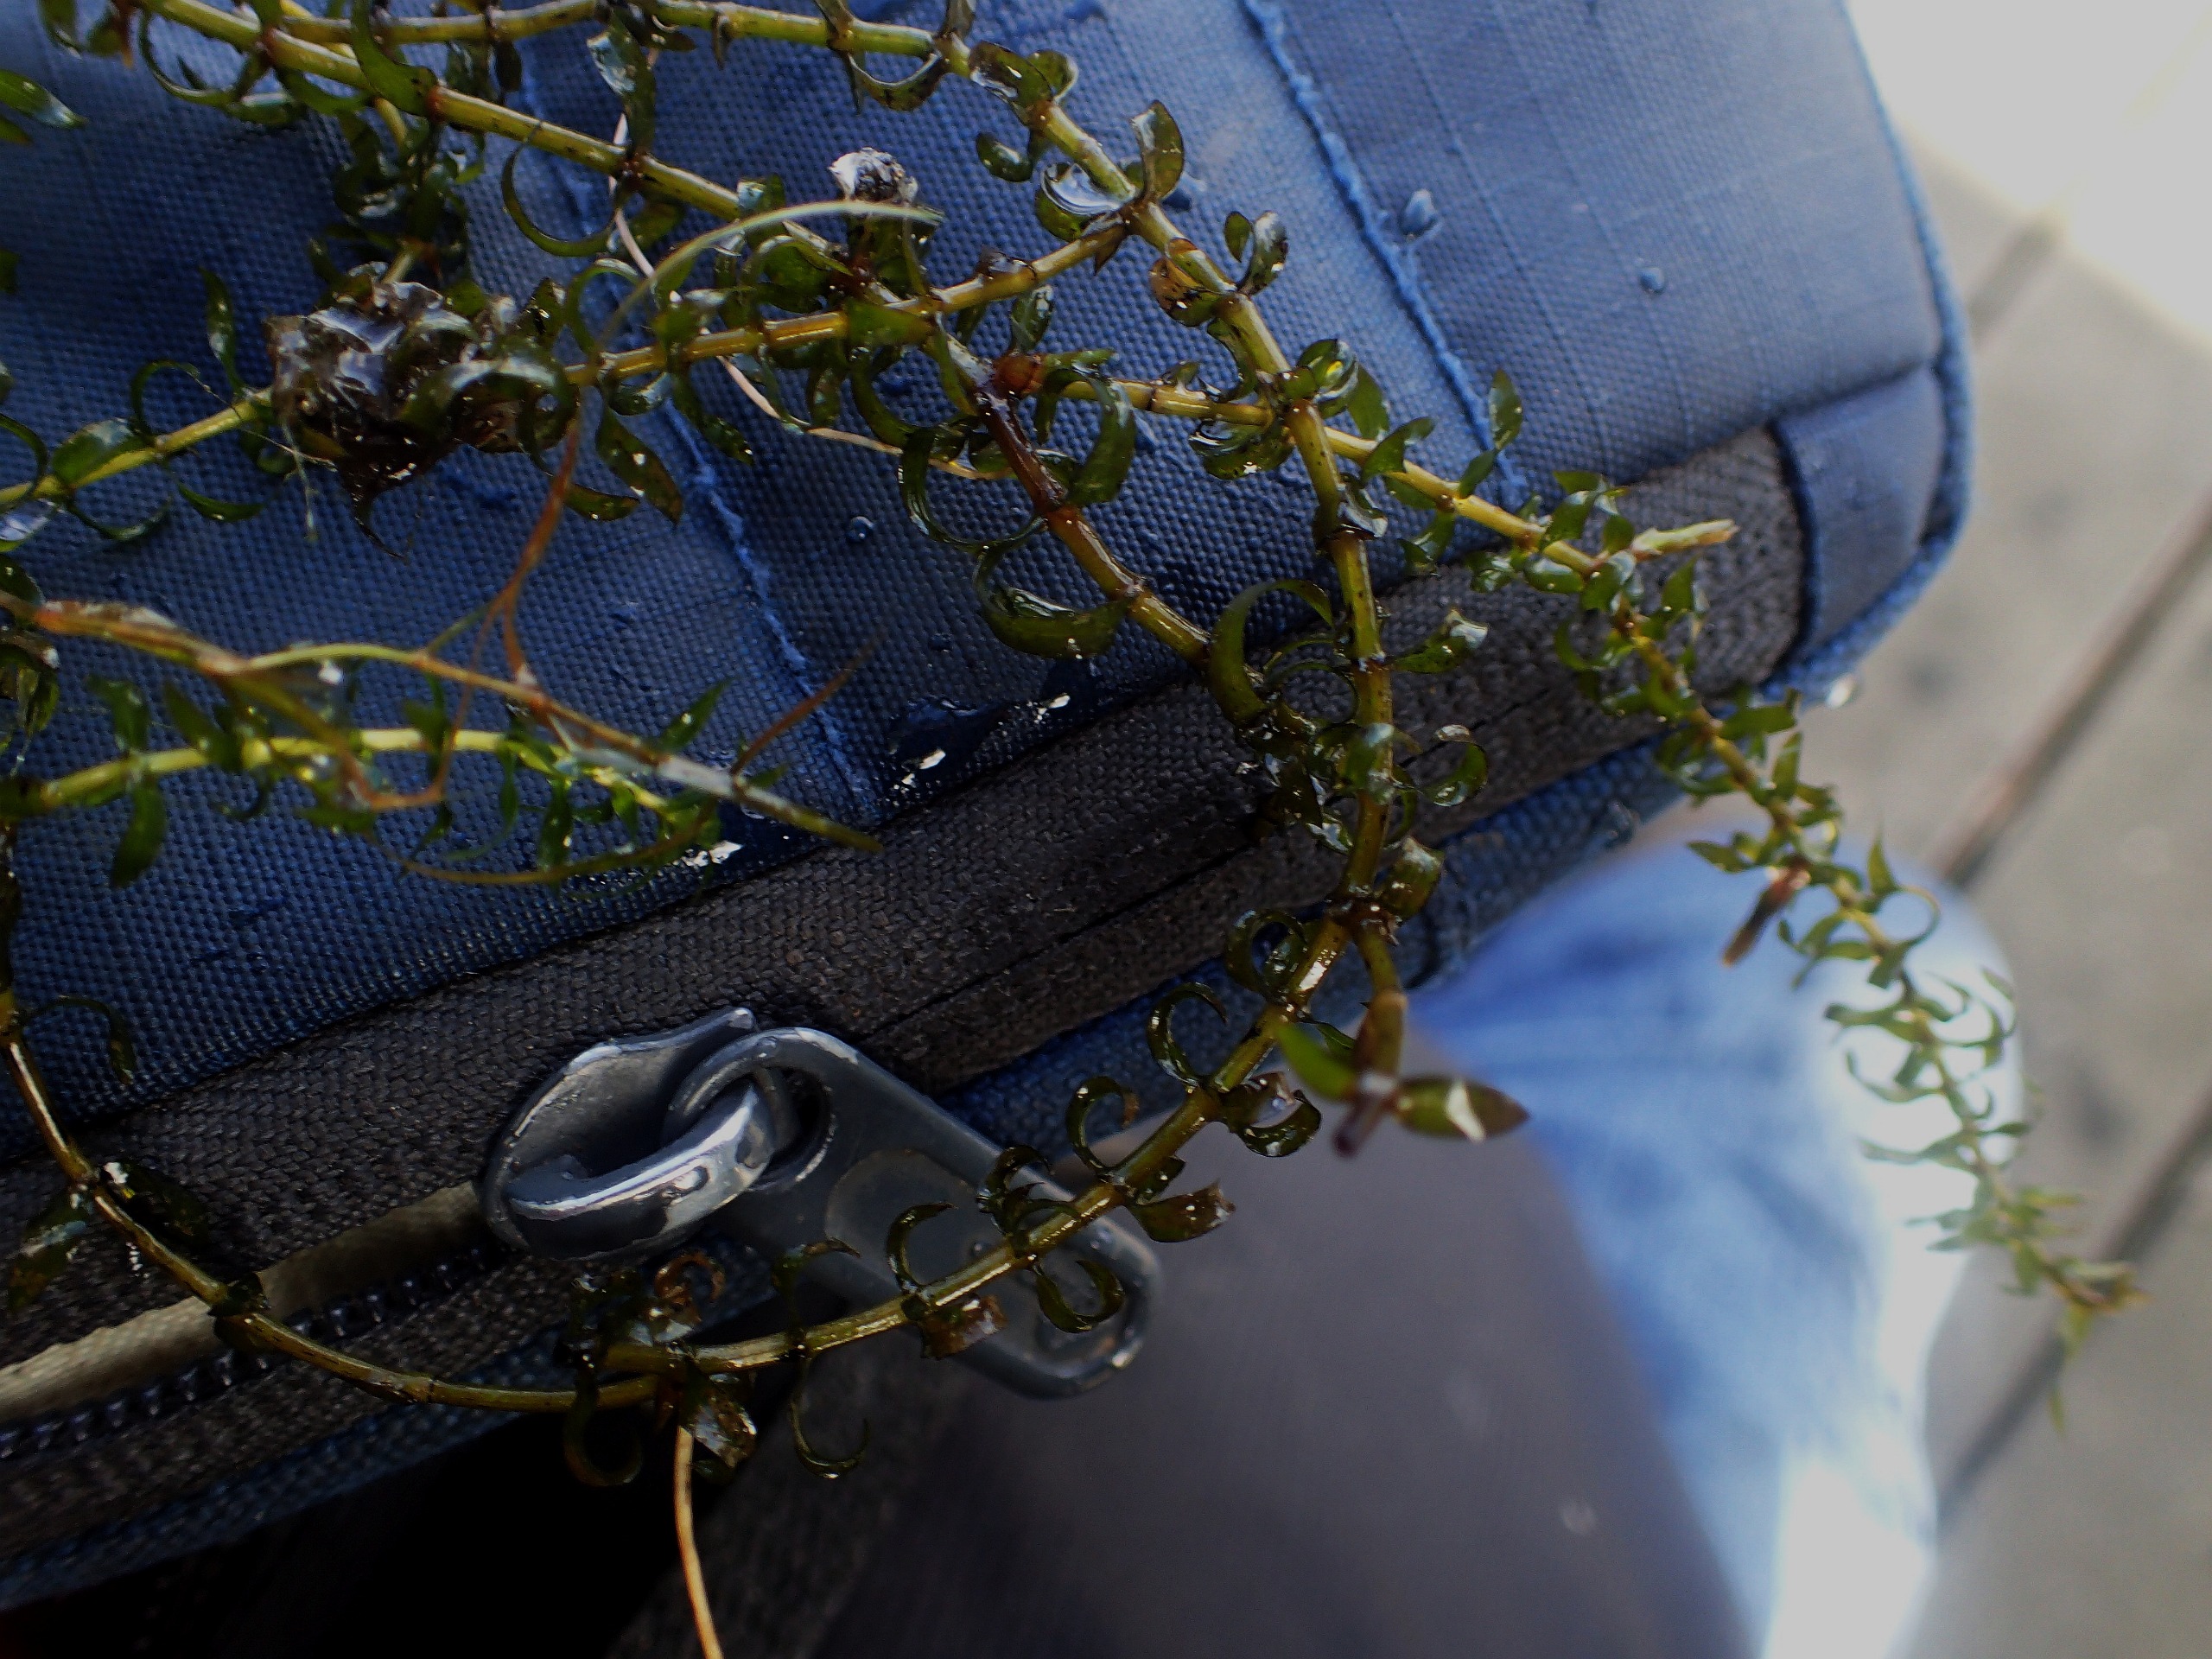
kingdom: Plantae
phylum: Tracheophyta
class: Liliopsida
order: Alismatales
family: Hydrocharitaceae
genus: Elodea
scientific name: Elodea nuttallii
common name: Smalbladet vandpest
